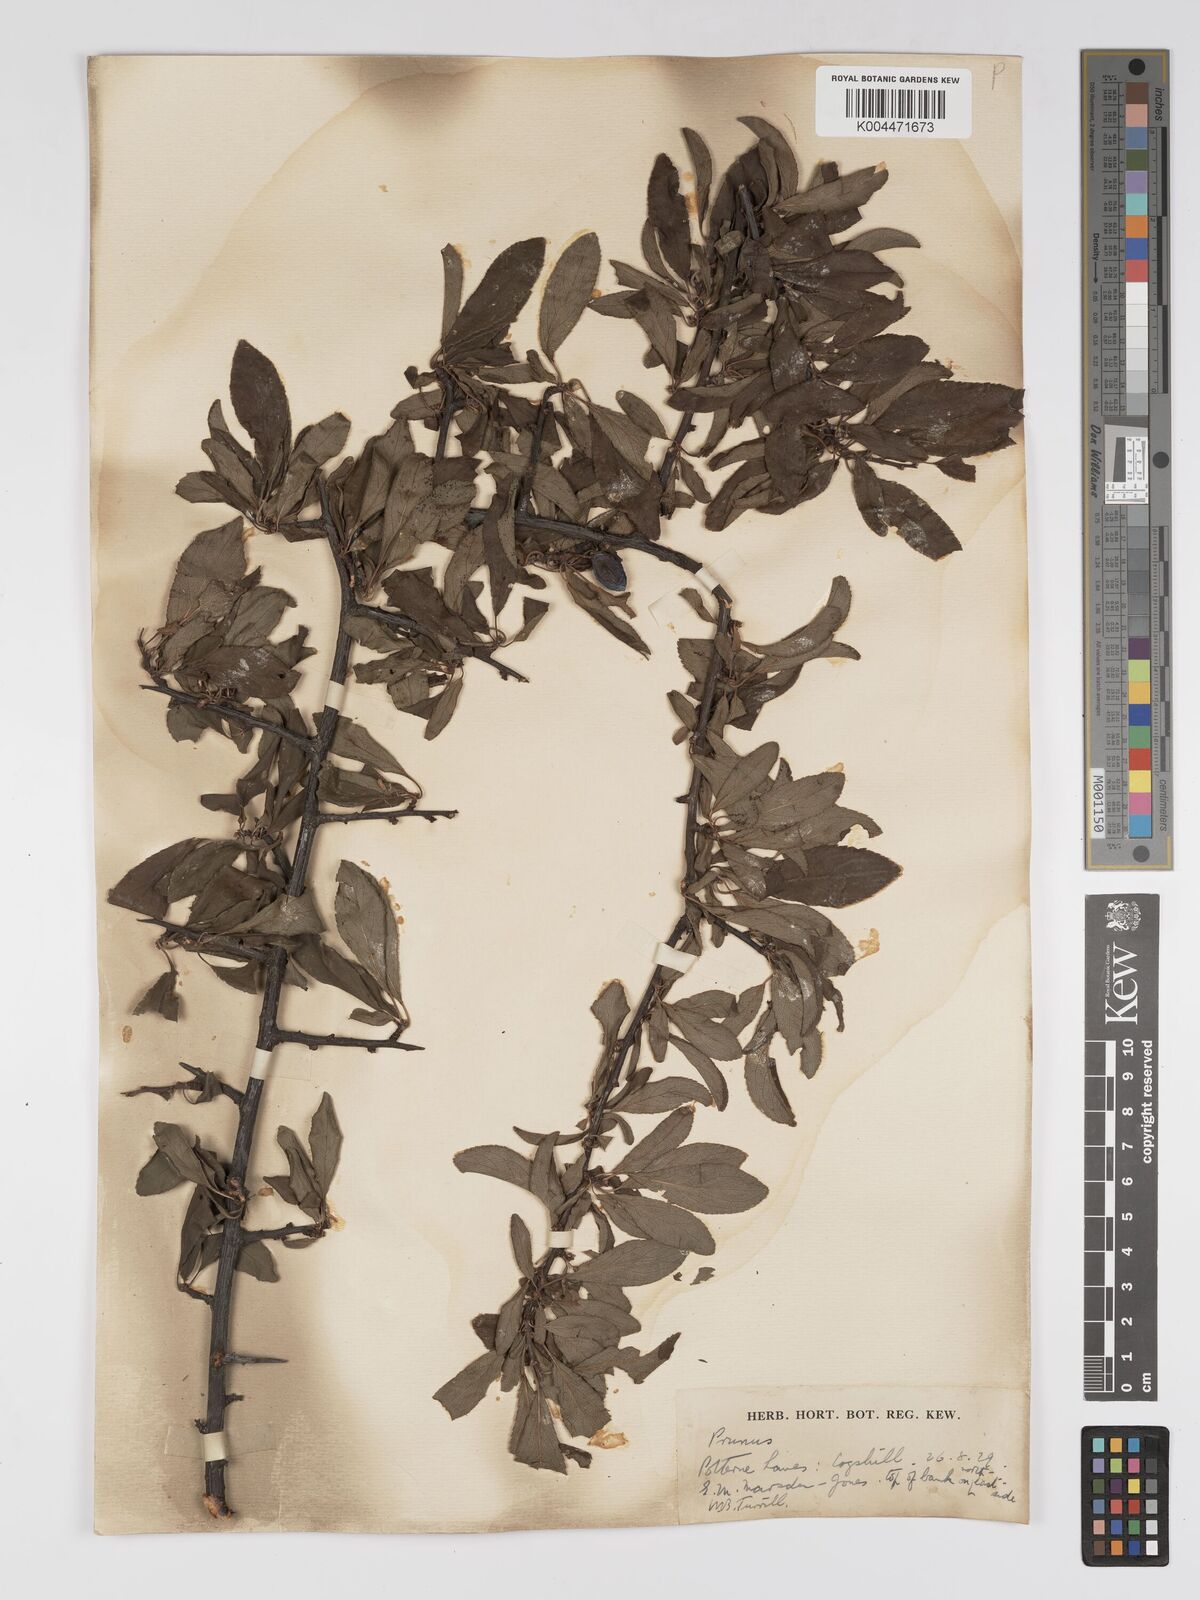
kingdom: Plantae
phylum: Tracheophyta
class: Magnoliopsida
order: Rosales
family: Rosaceae
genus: Prunus
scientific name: Prunus
